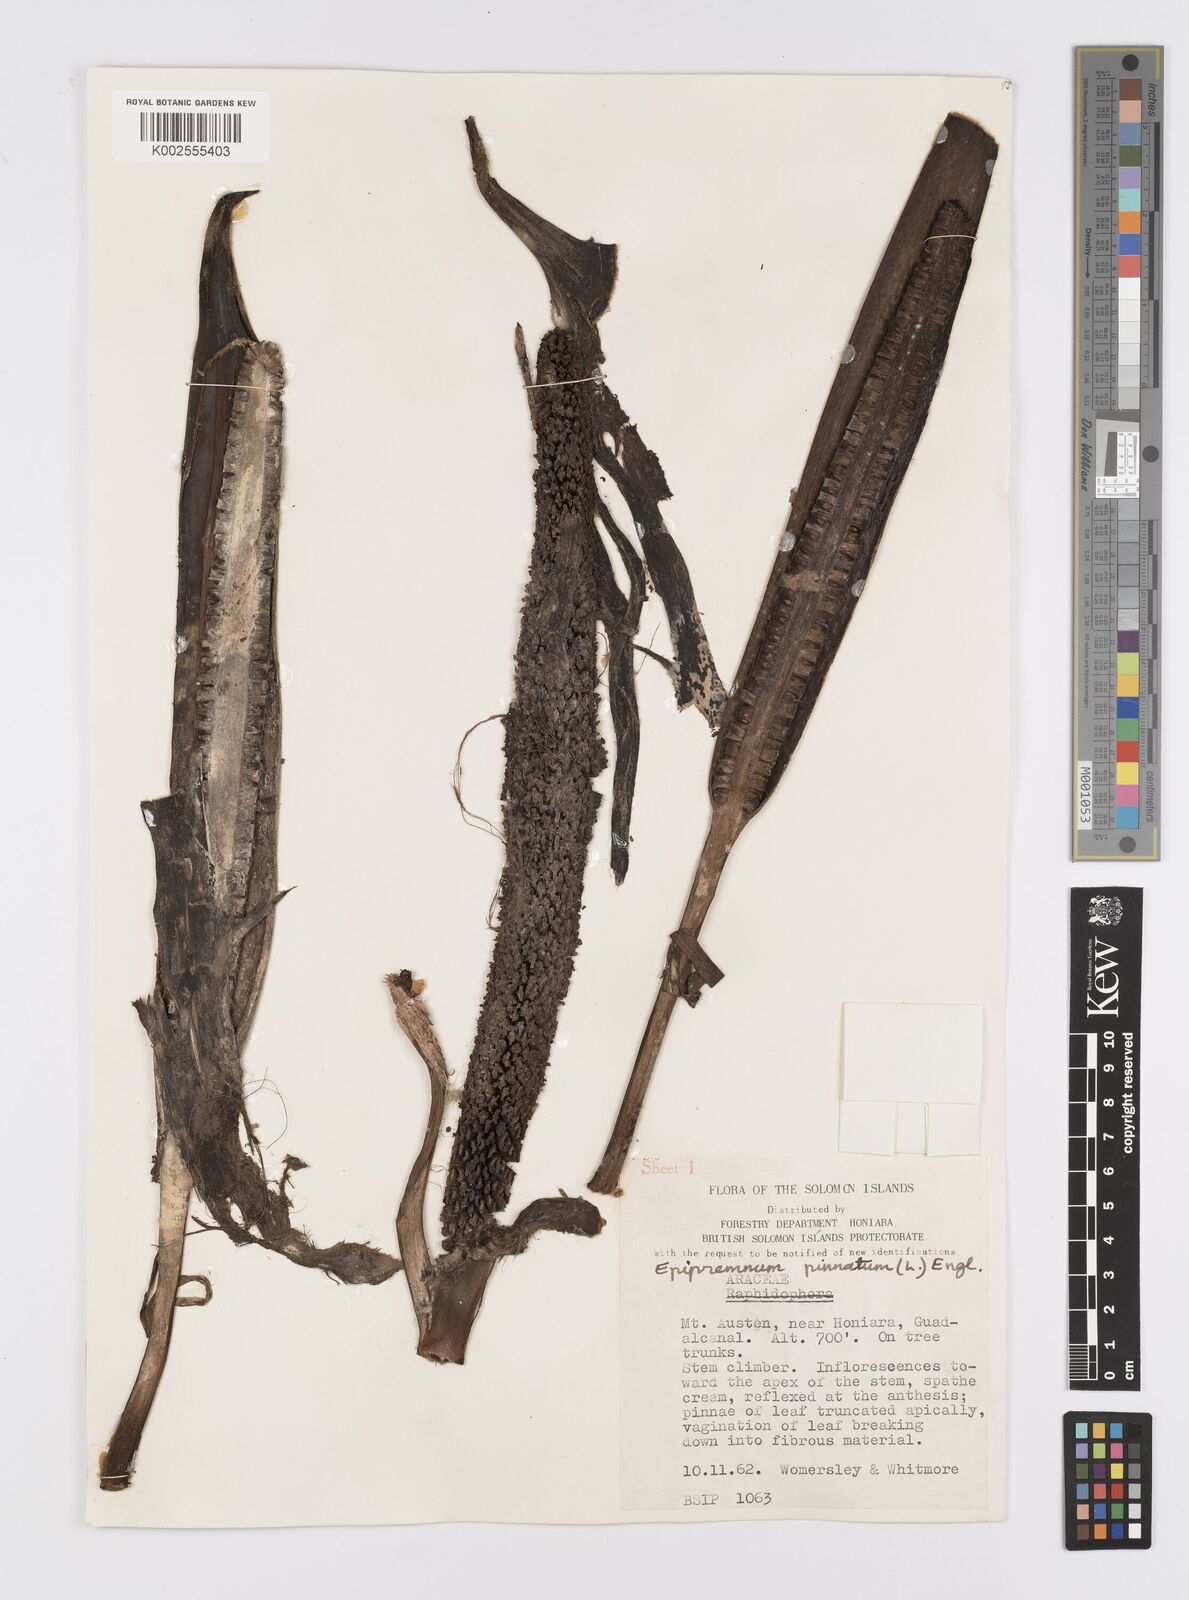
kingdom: Plantae
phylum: Tracheophyta
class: Liliopsida
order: Alismatales
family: Araceae
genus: Epipremnum
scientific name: Epipremnum pinnatum
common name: Centipede tongavine
